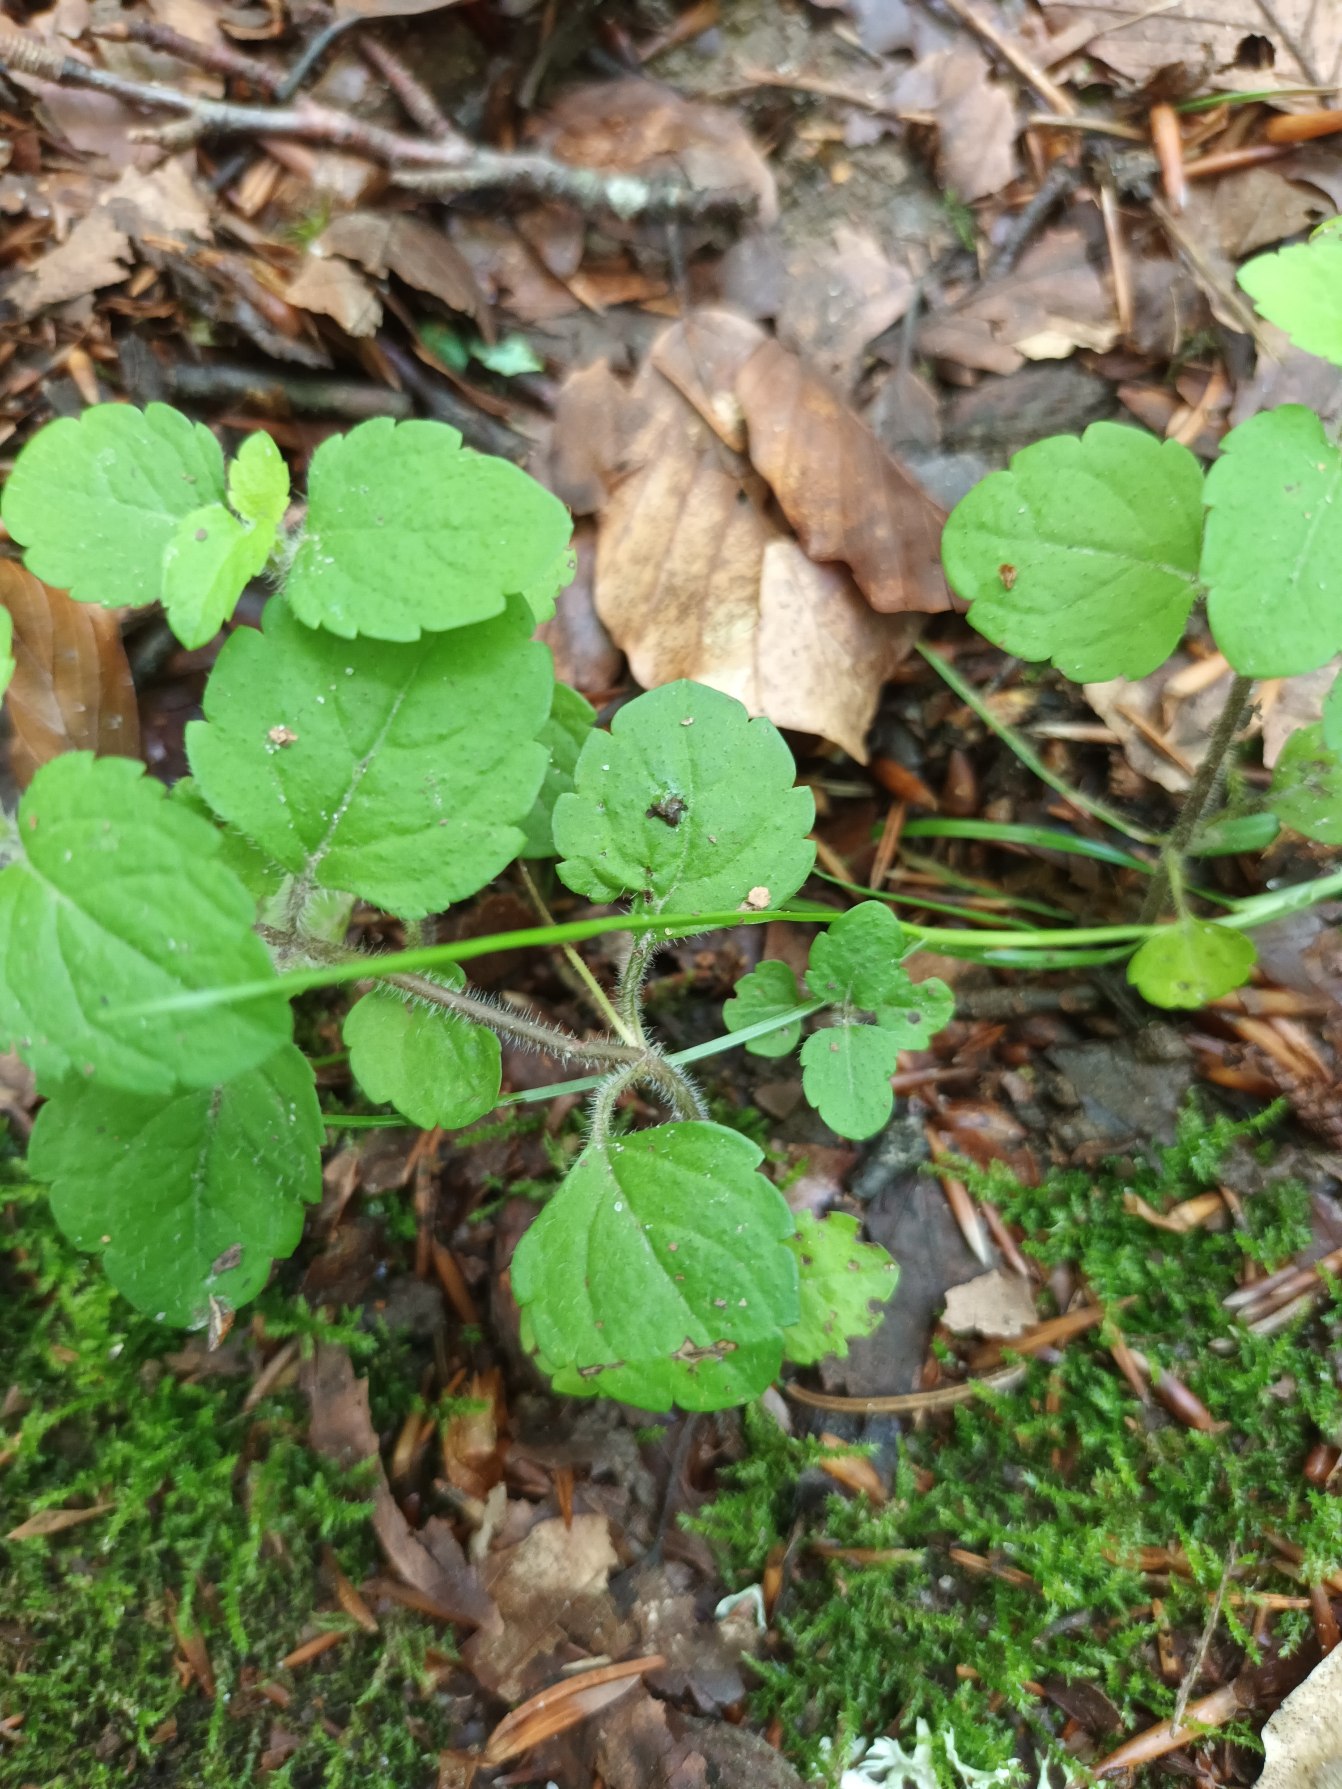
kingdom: Plantae
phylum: Tracheophyta
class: Magnoliopsida
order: Lamiales
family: Plantaginaceae
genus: Veronica
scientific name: Veronica montana
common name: Bjerg-ærenpris
